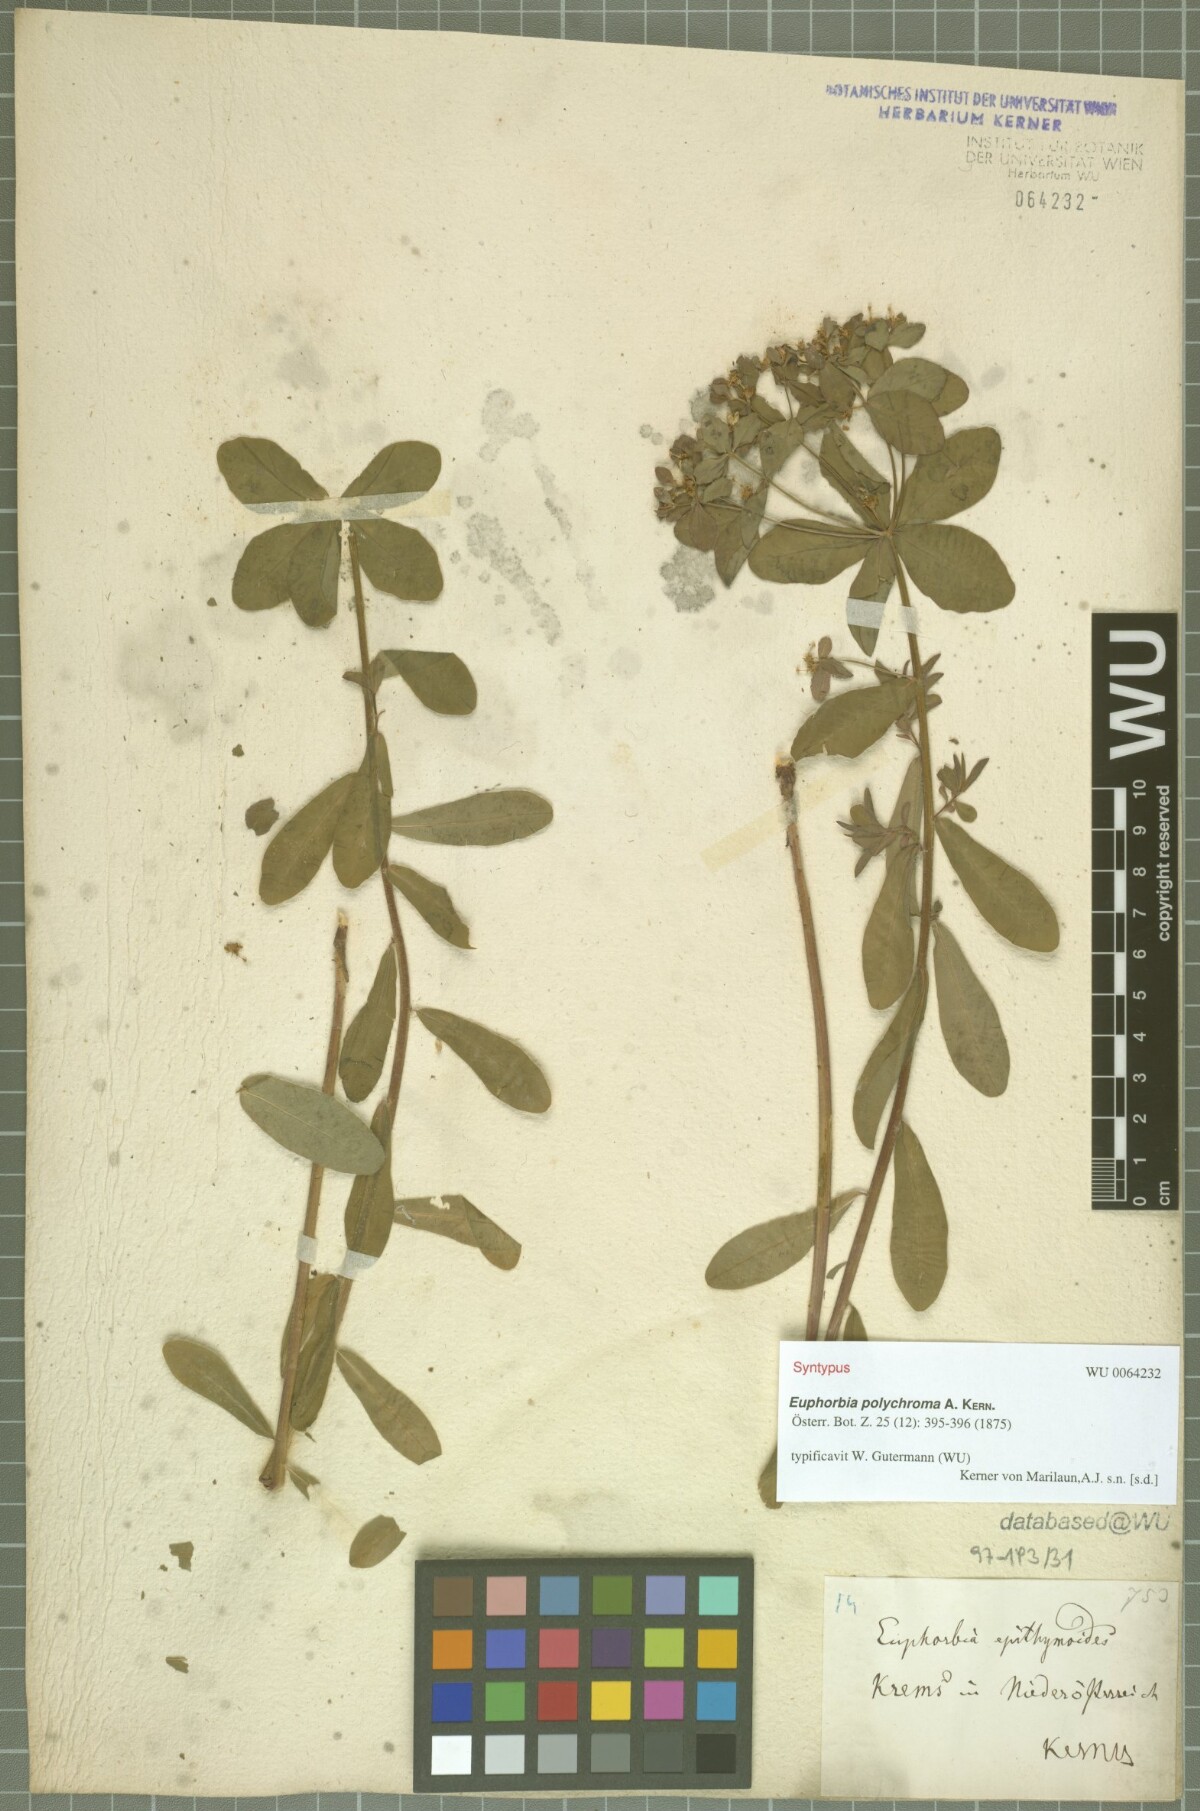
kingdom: Plantae
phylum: Tracheophyta
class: Magnoliopsida
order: Malpighiales
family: Euphorbiaceae
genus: Euphorbia
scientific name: Euphorbia epithymoides
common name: Cushion spurge
